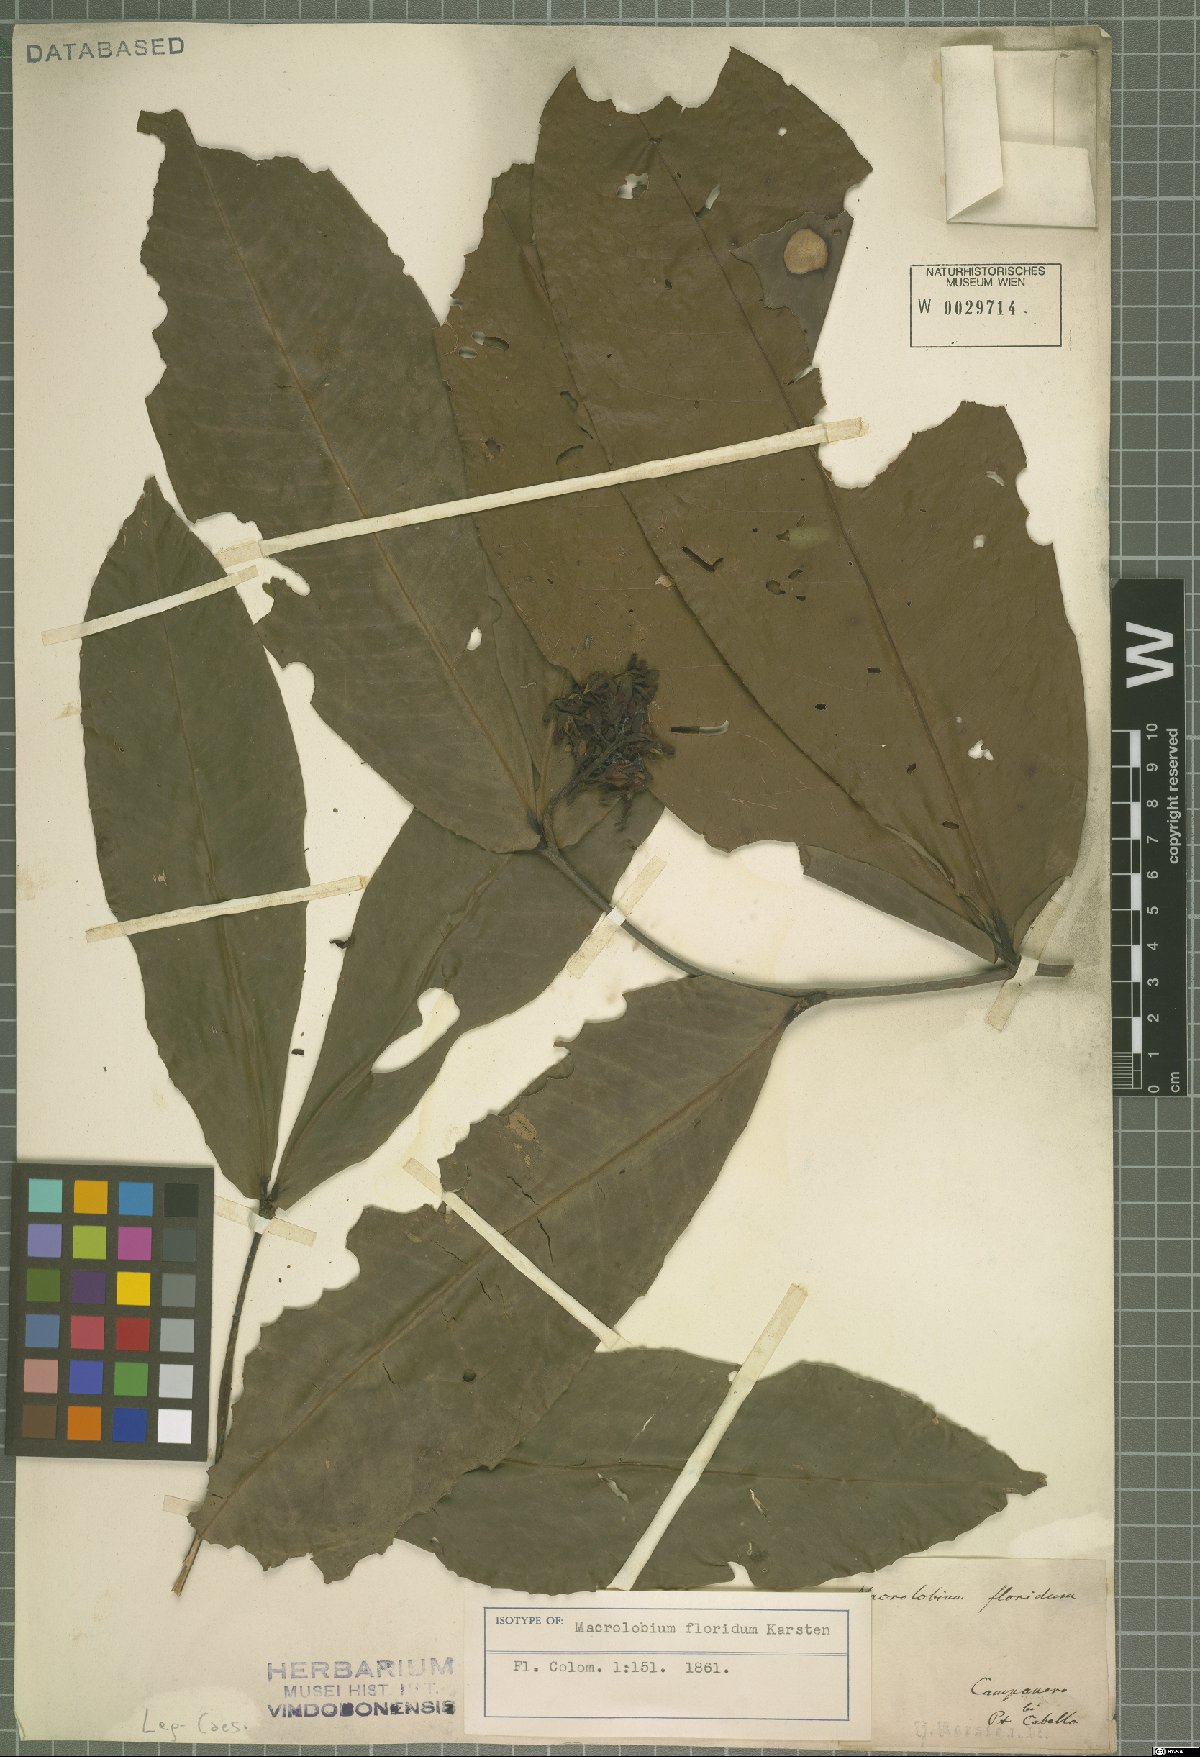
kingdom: Plantae
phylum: Tracheophyta
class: Magnoliopsida
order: Fabales
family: Fabaceae
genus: Macrolobium
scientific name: Macrolobium floridum
